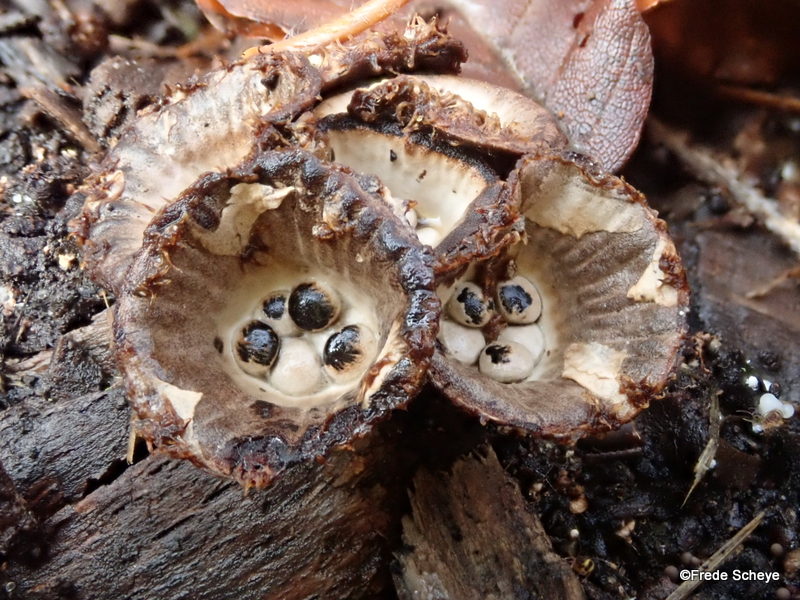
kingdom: Fungi
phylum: Basidiomycota
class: Agaricomycetes
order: Agaricales
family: Agaricaceae
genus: Cyathus
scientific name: Cyathus striatus
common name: stribet redesvamp
